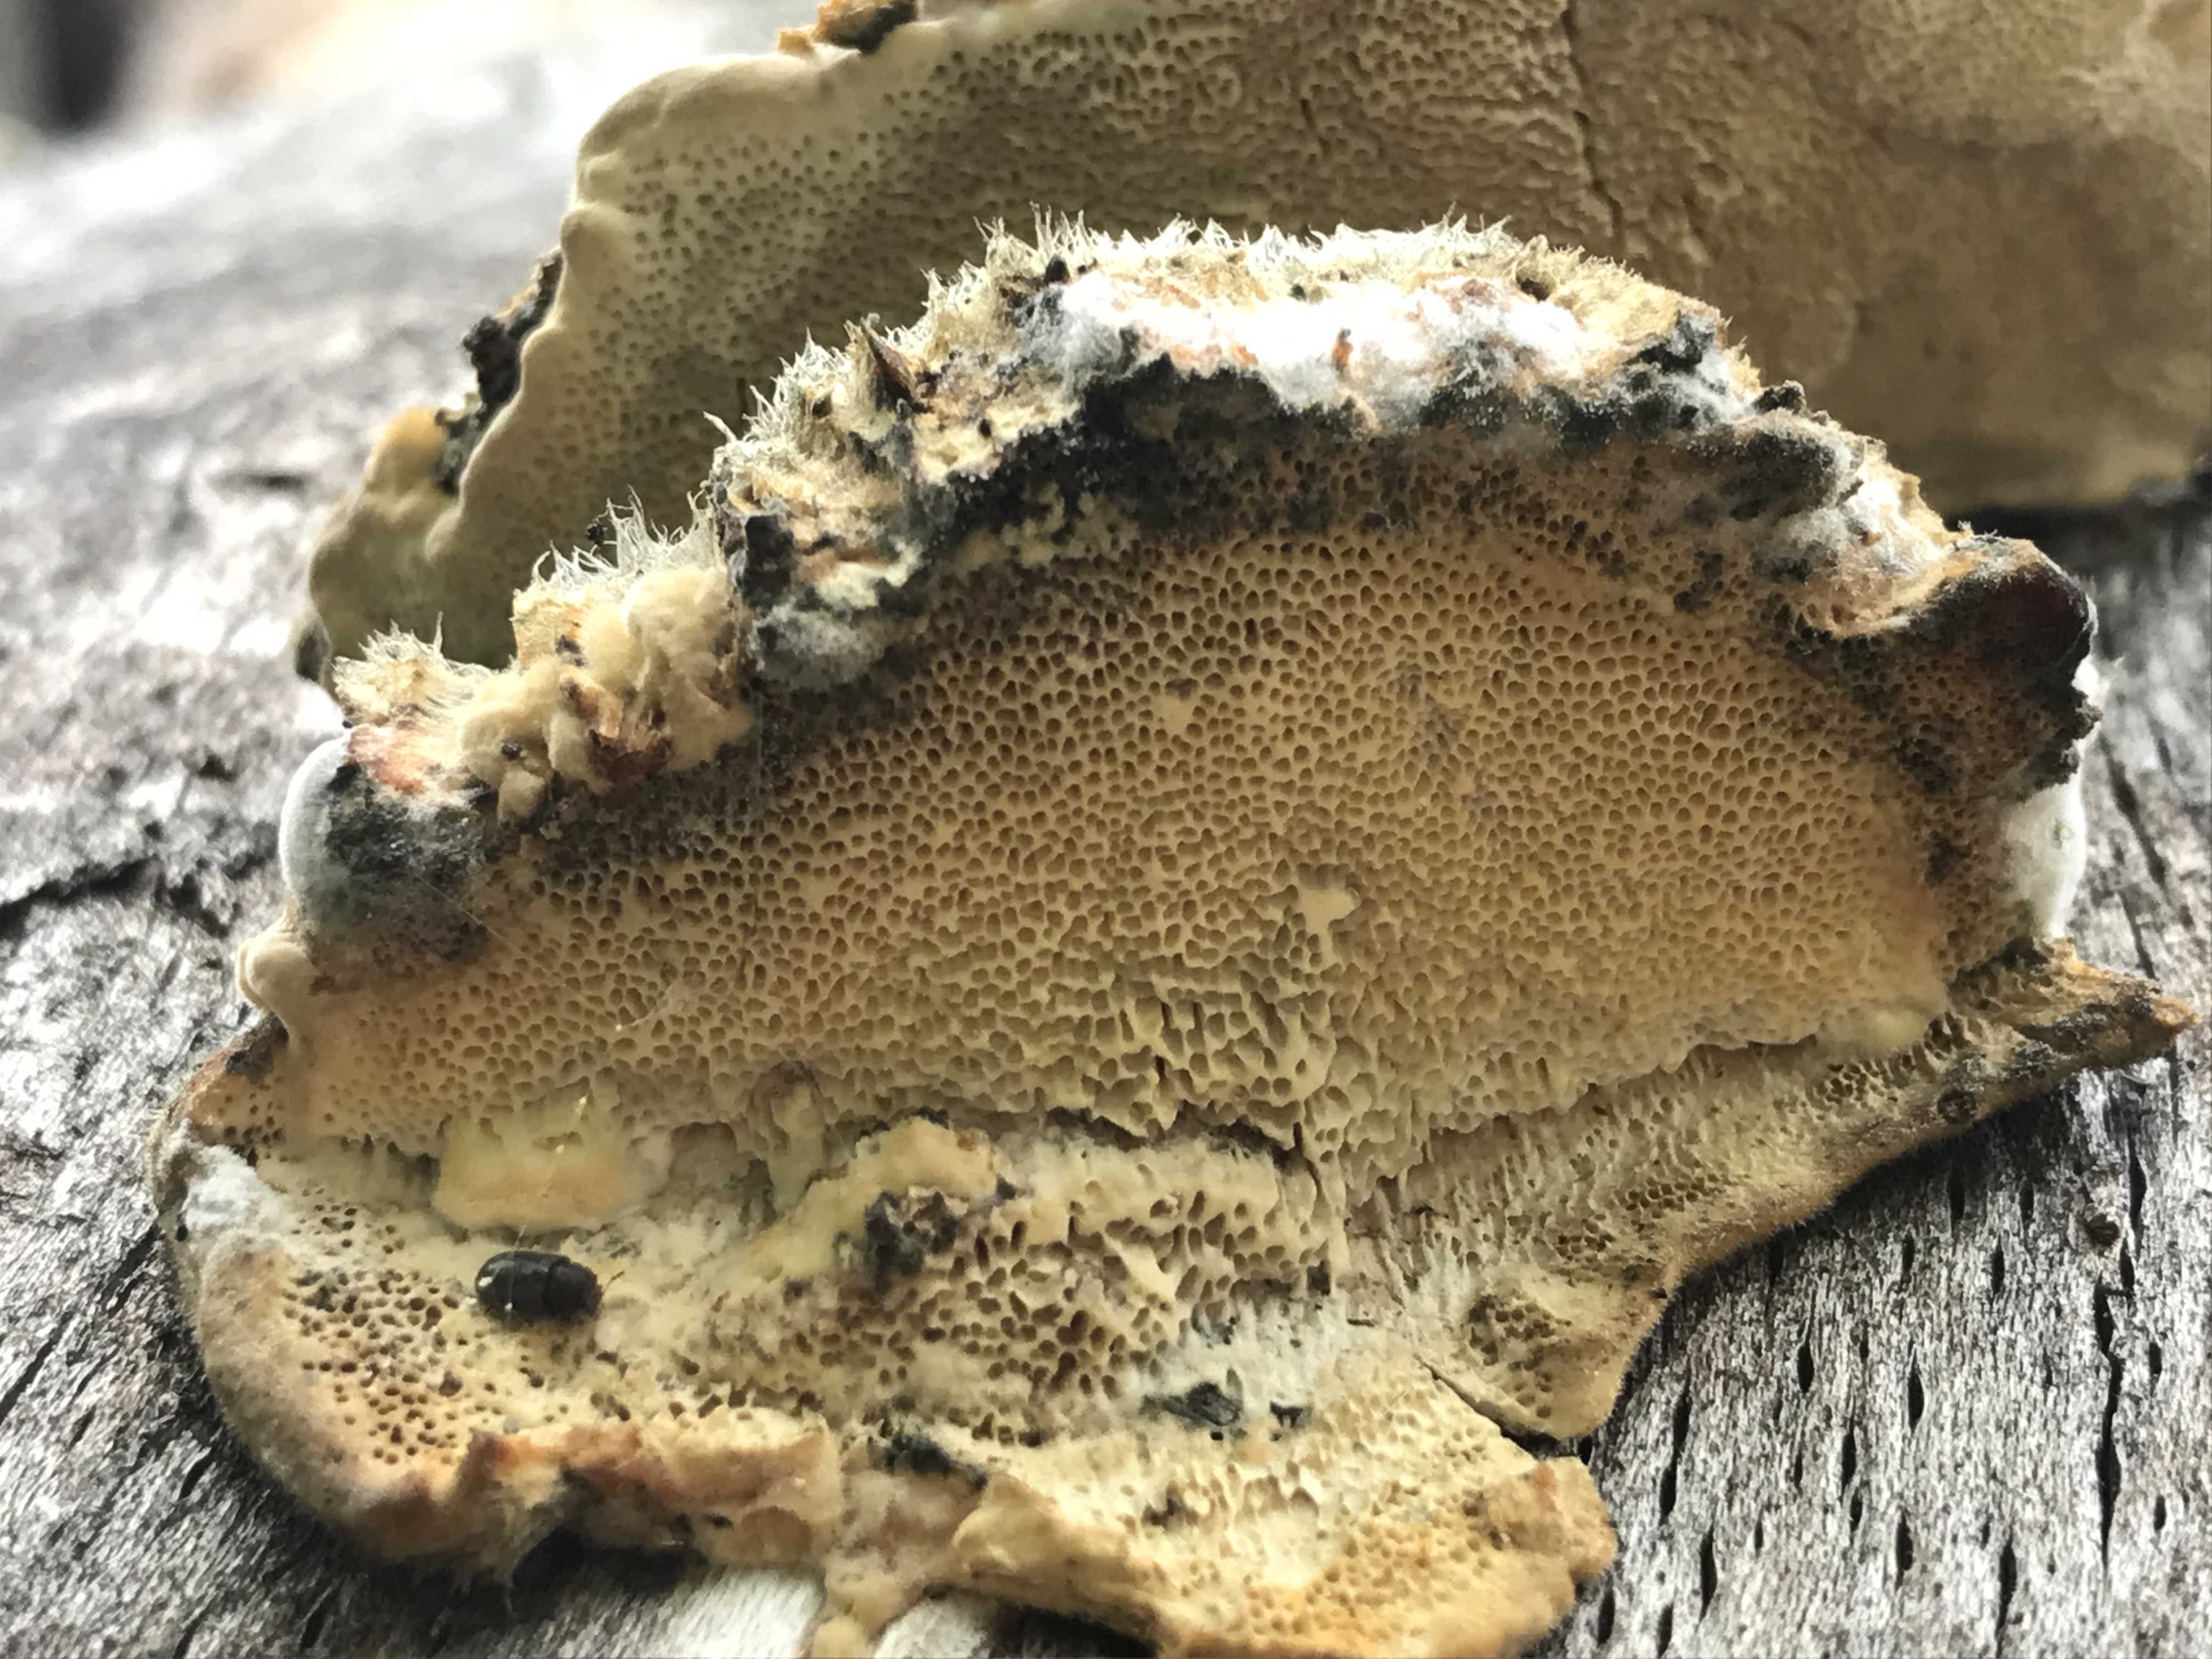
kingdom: Fungi
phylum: Basidiomycota
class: Agaricomycetes
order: Polyporales
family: Polyporaceae
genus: Trametes
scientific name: Trametes hirsuta
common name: håret læderporesvamp
